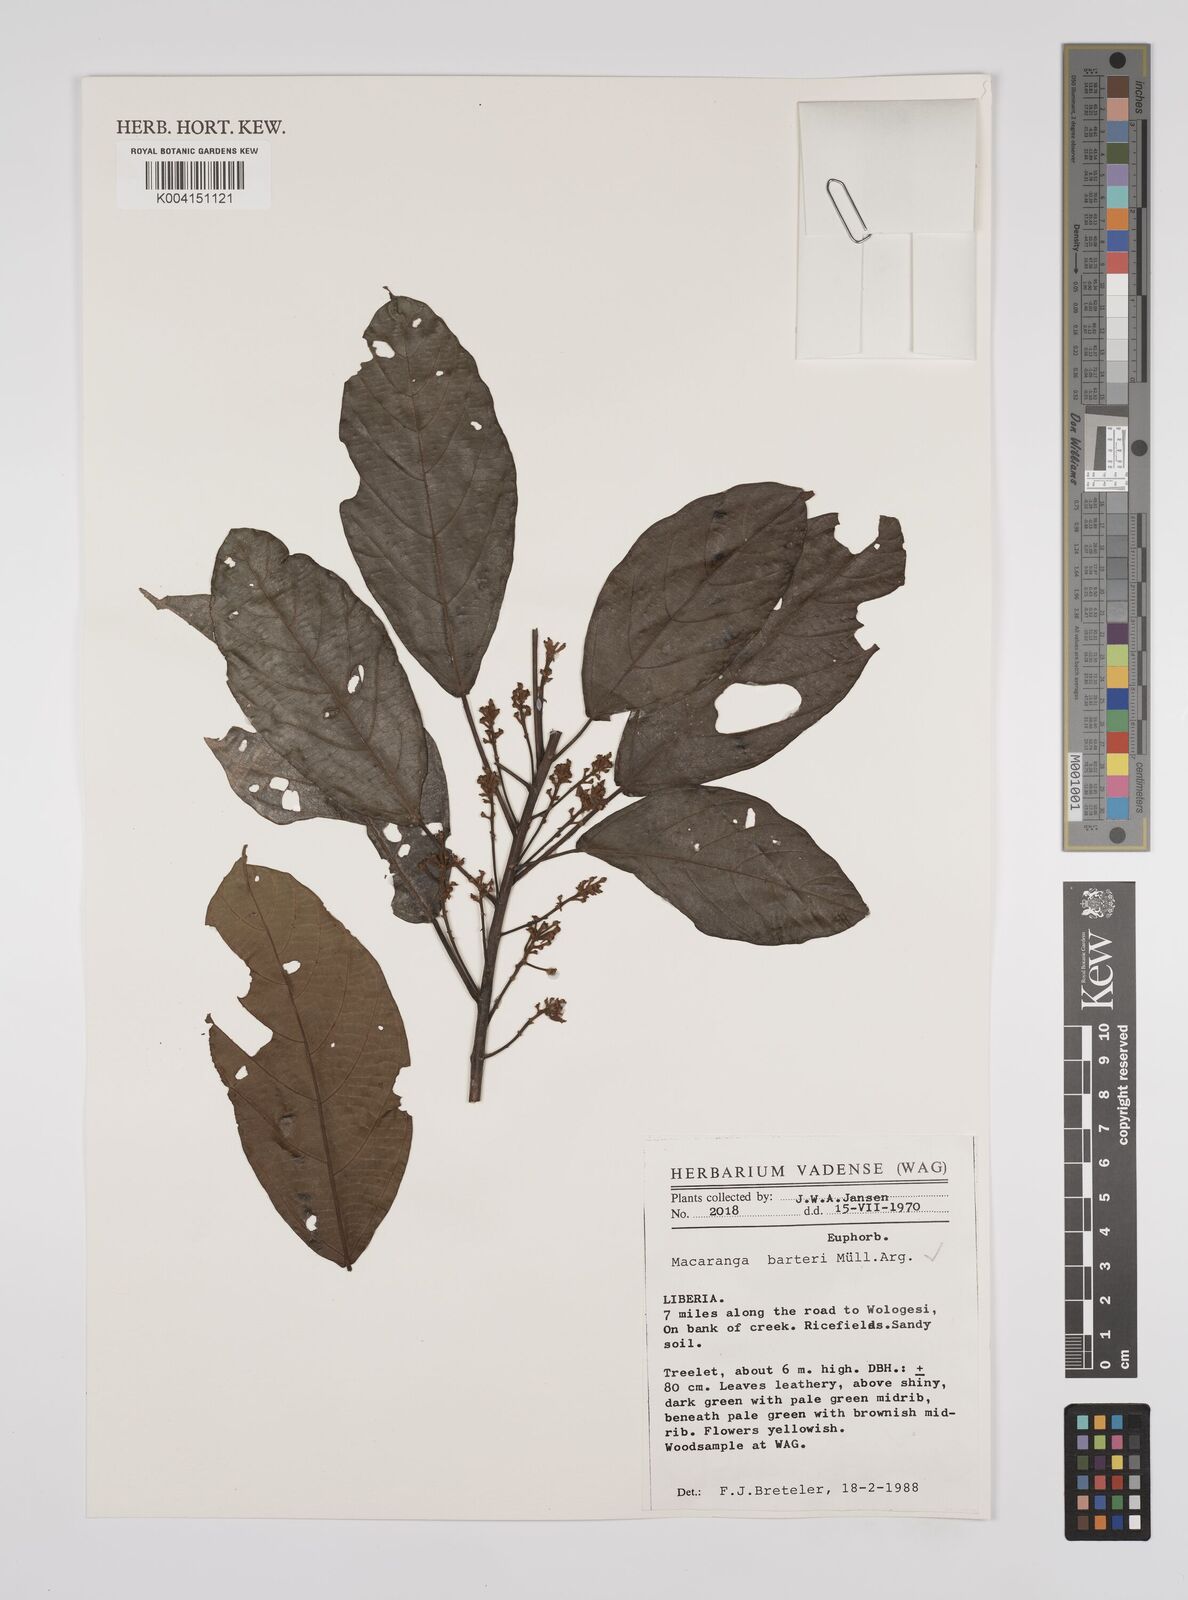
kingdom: Plantae
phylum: Tracheophyta
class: Magnoliopsida
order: Malpighiales
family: Euphorbiaceae
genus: Macaranga
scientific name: Macaranga barteri
